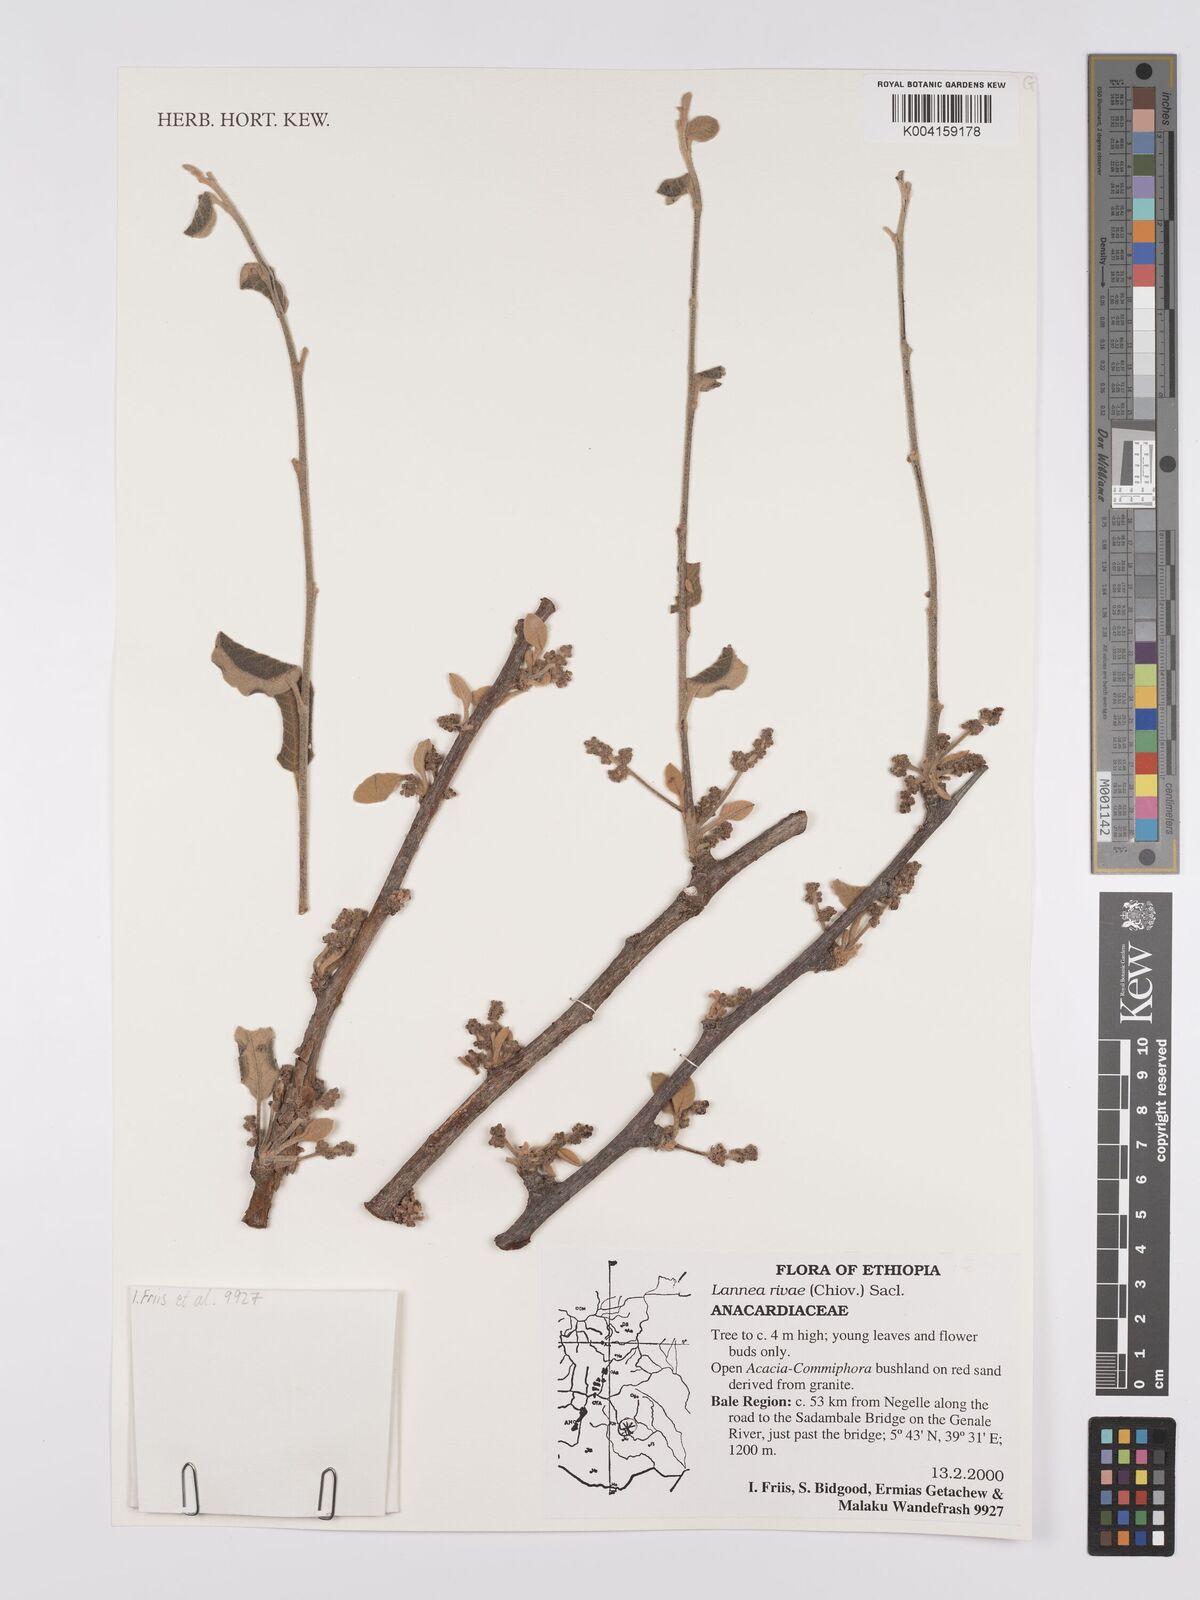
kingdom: Plantae
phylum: Tracheophyta
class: Magnoliopsida
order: Sapindales
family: Anacardiaceae
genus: Lannea
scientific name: Lannea rivae
